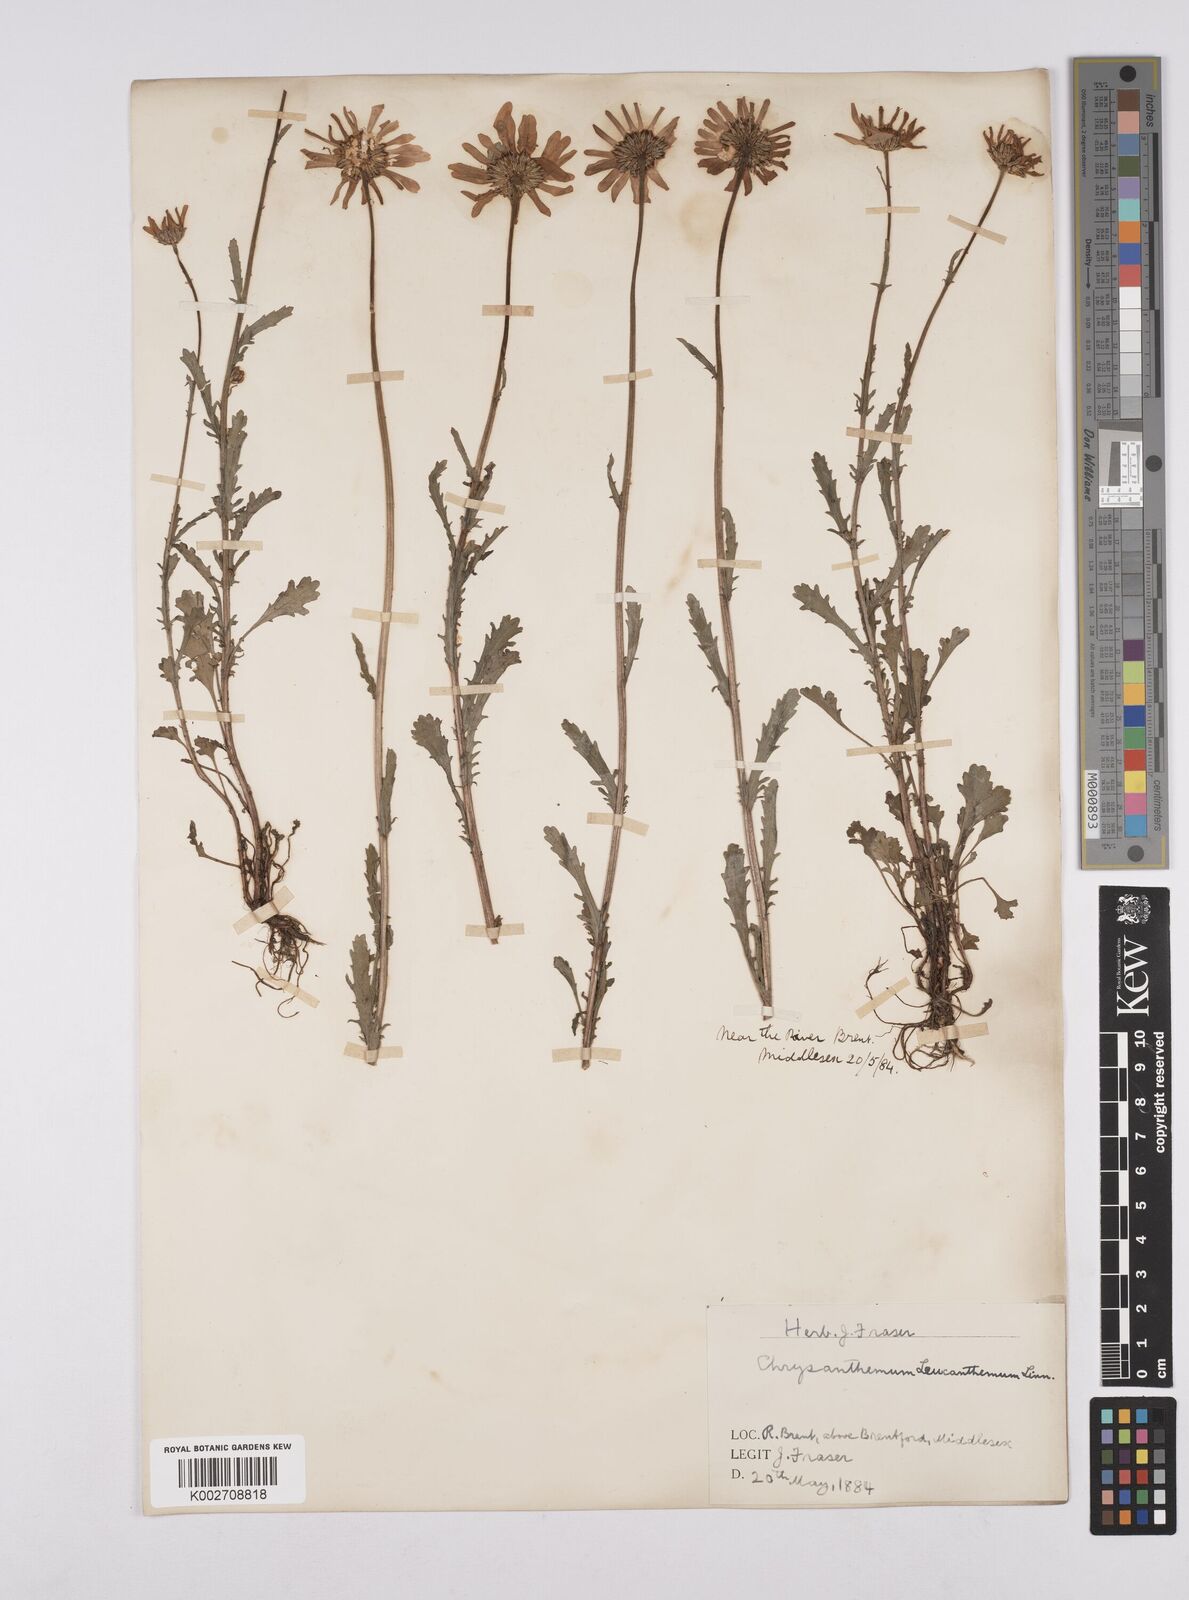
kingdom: Plantae
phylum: Tracheophyta
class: Magnoliopsida
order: Asterales
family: Asteraceae
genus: Leucanthemum
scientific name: Leucanthemum vulgare
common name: Oxeye daisy
